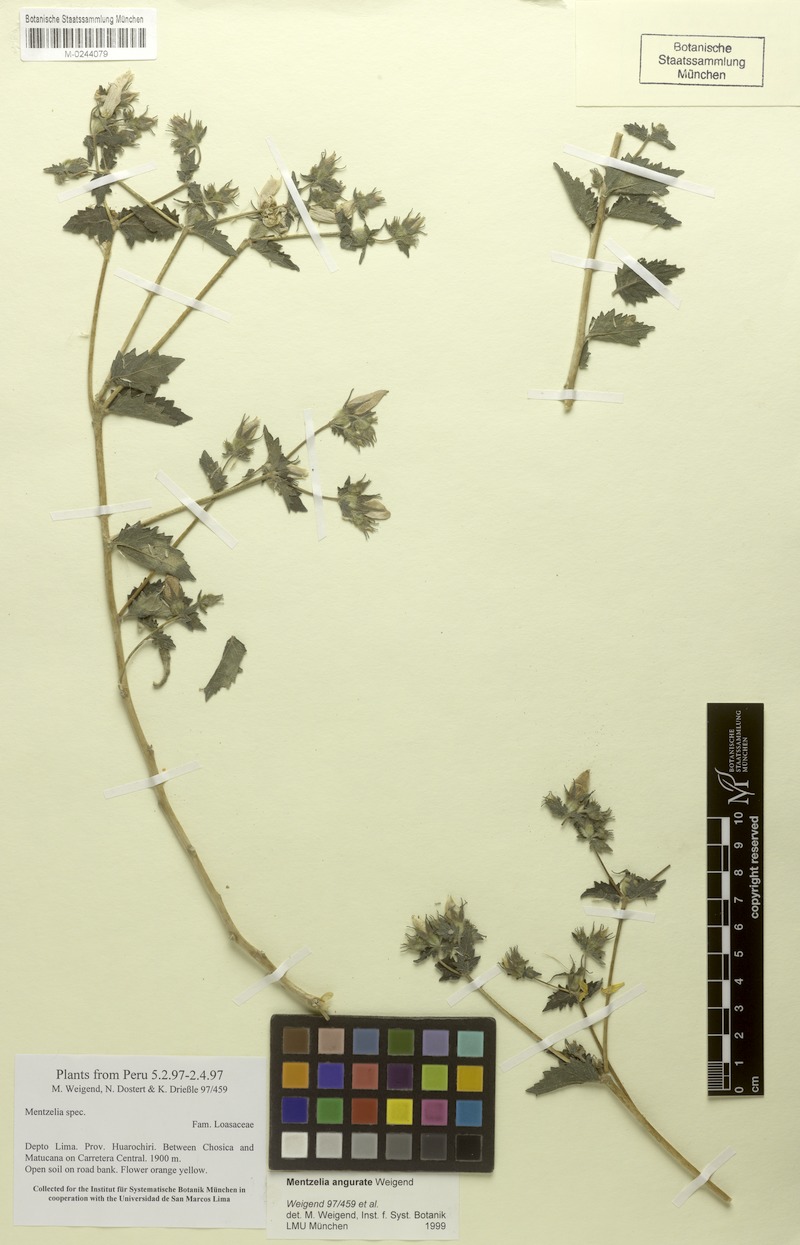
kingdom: Plantae
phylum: Tracheophyta
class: Magnoliopsida
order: Cornales
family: Loasaceae
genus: Mentzelia
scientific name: Mentzelia angurate
